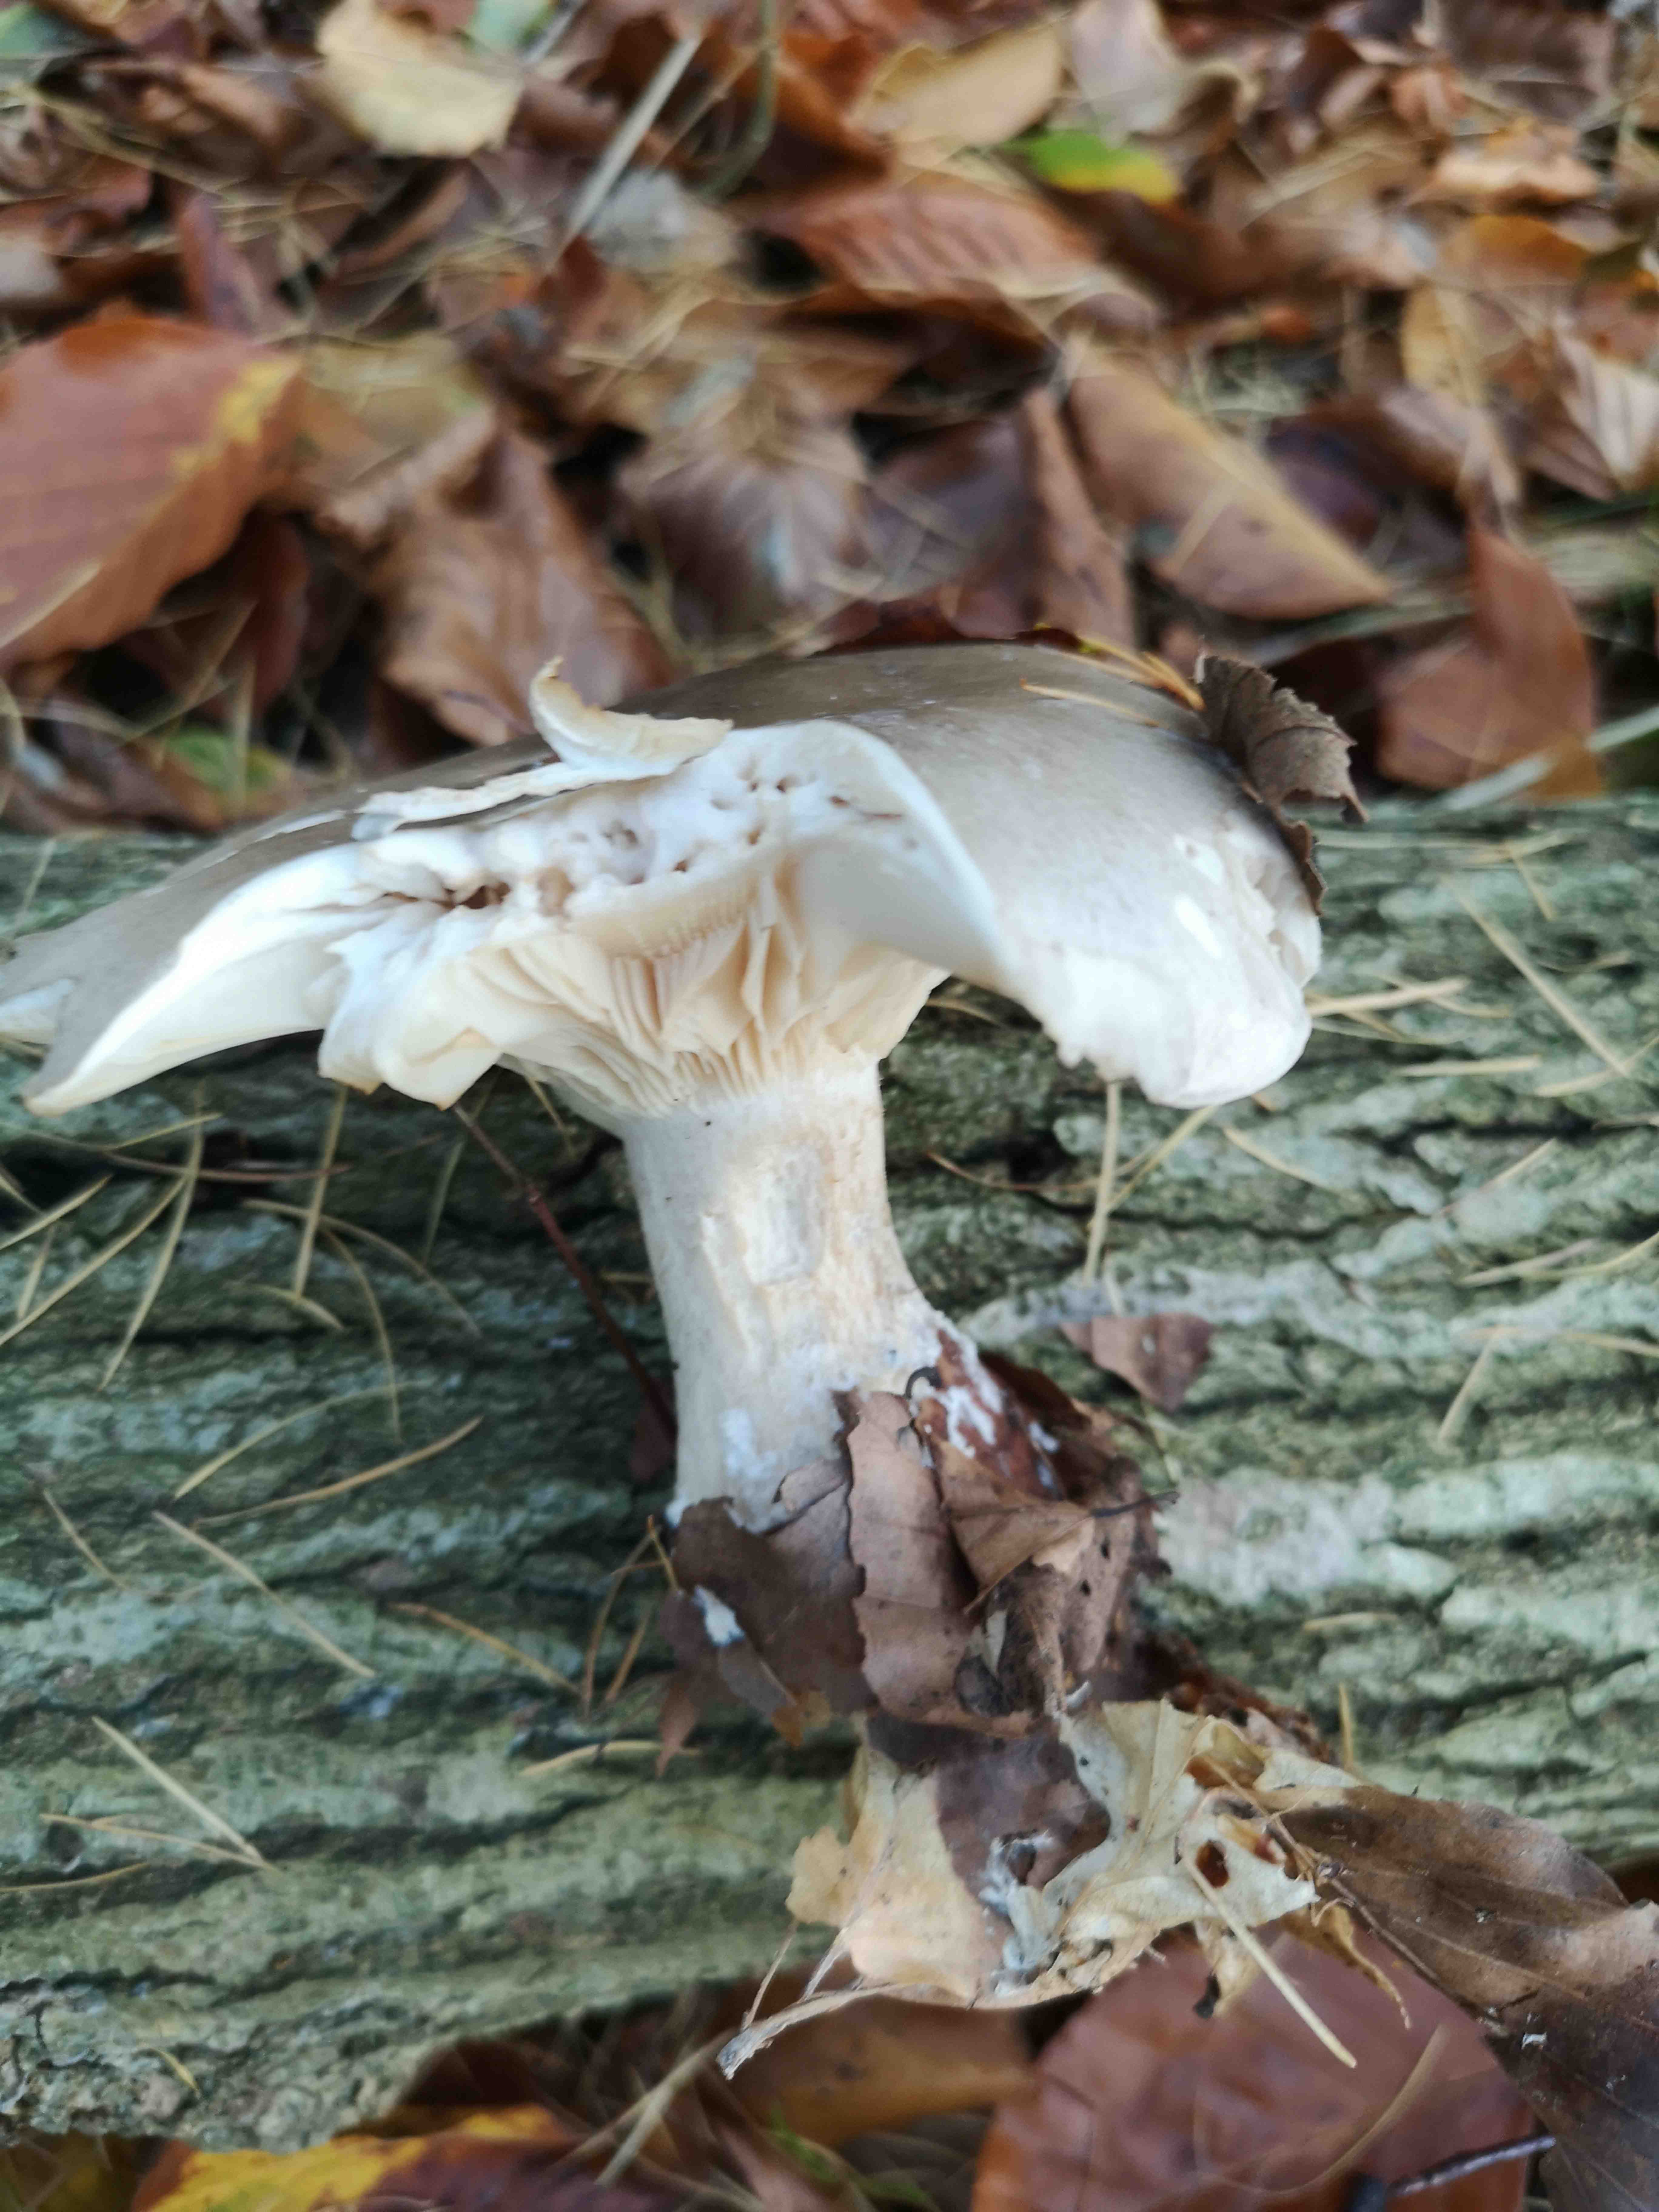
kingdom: Fungi
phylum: Basidiomycota
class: Agaricomycetes
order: Agaricales
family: Tricholomataceae
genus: Clitocybe
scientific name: Clitocybe nebularis
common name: tåge-tragthat
